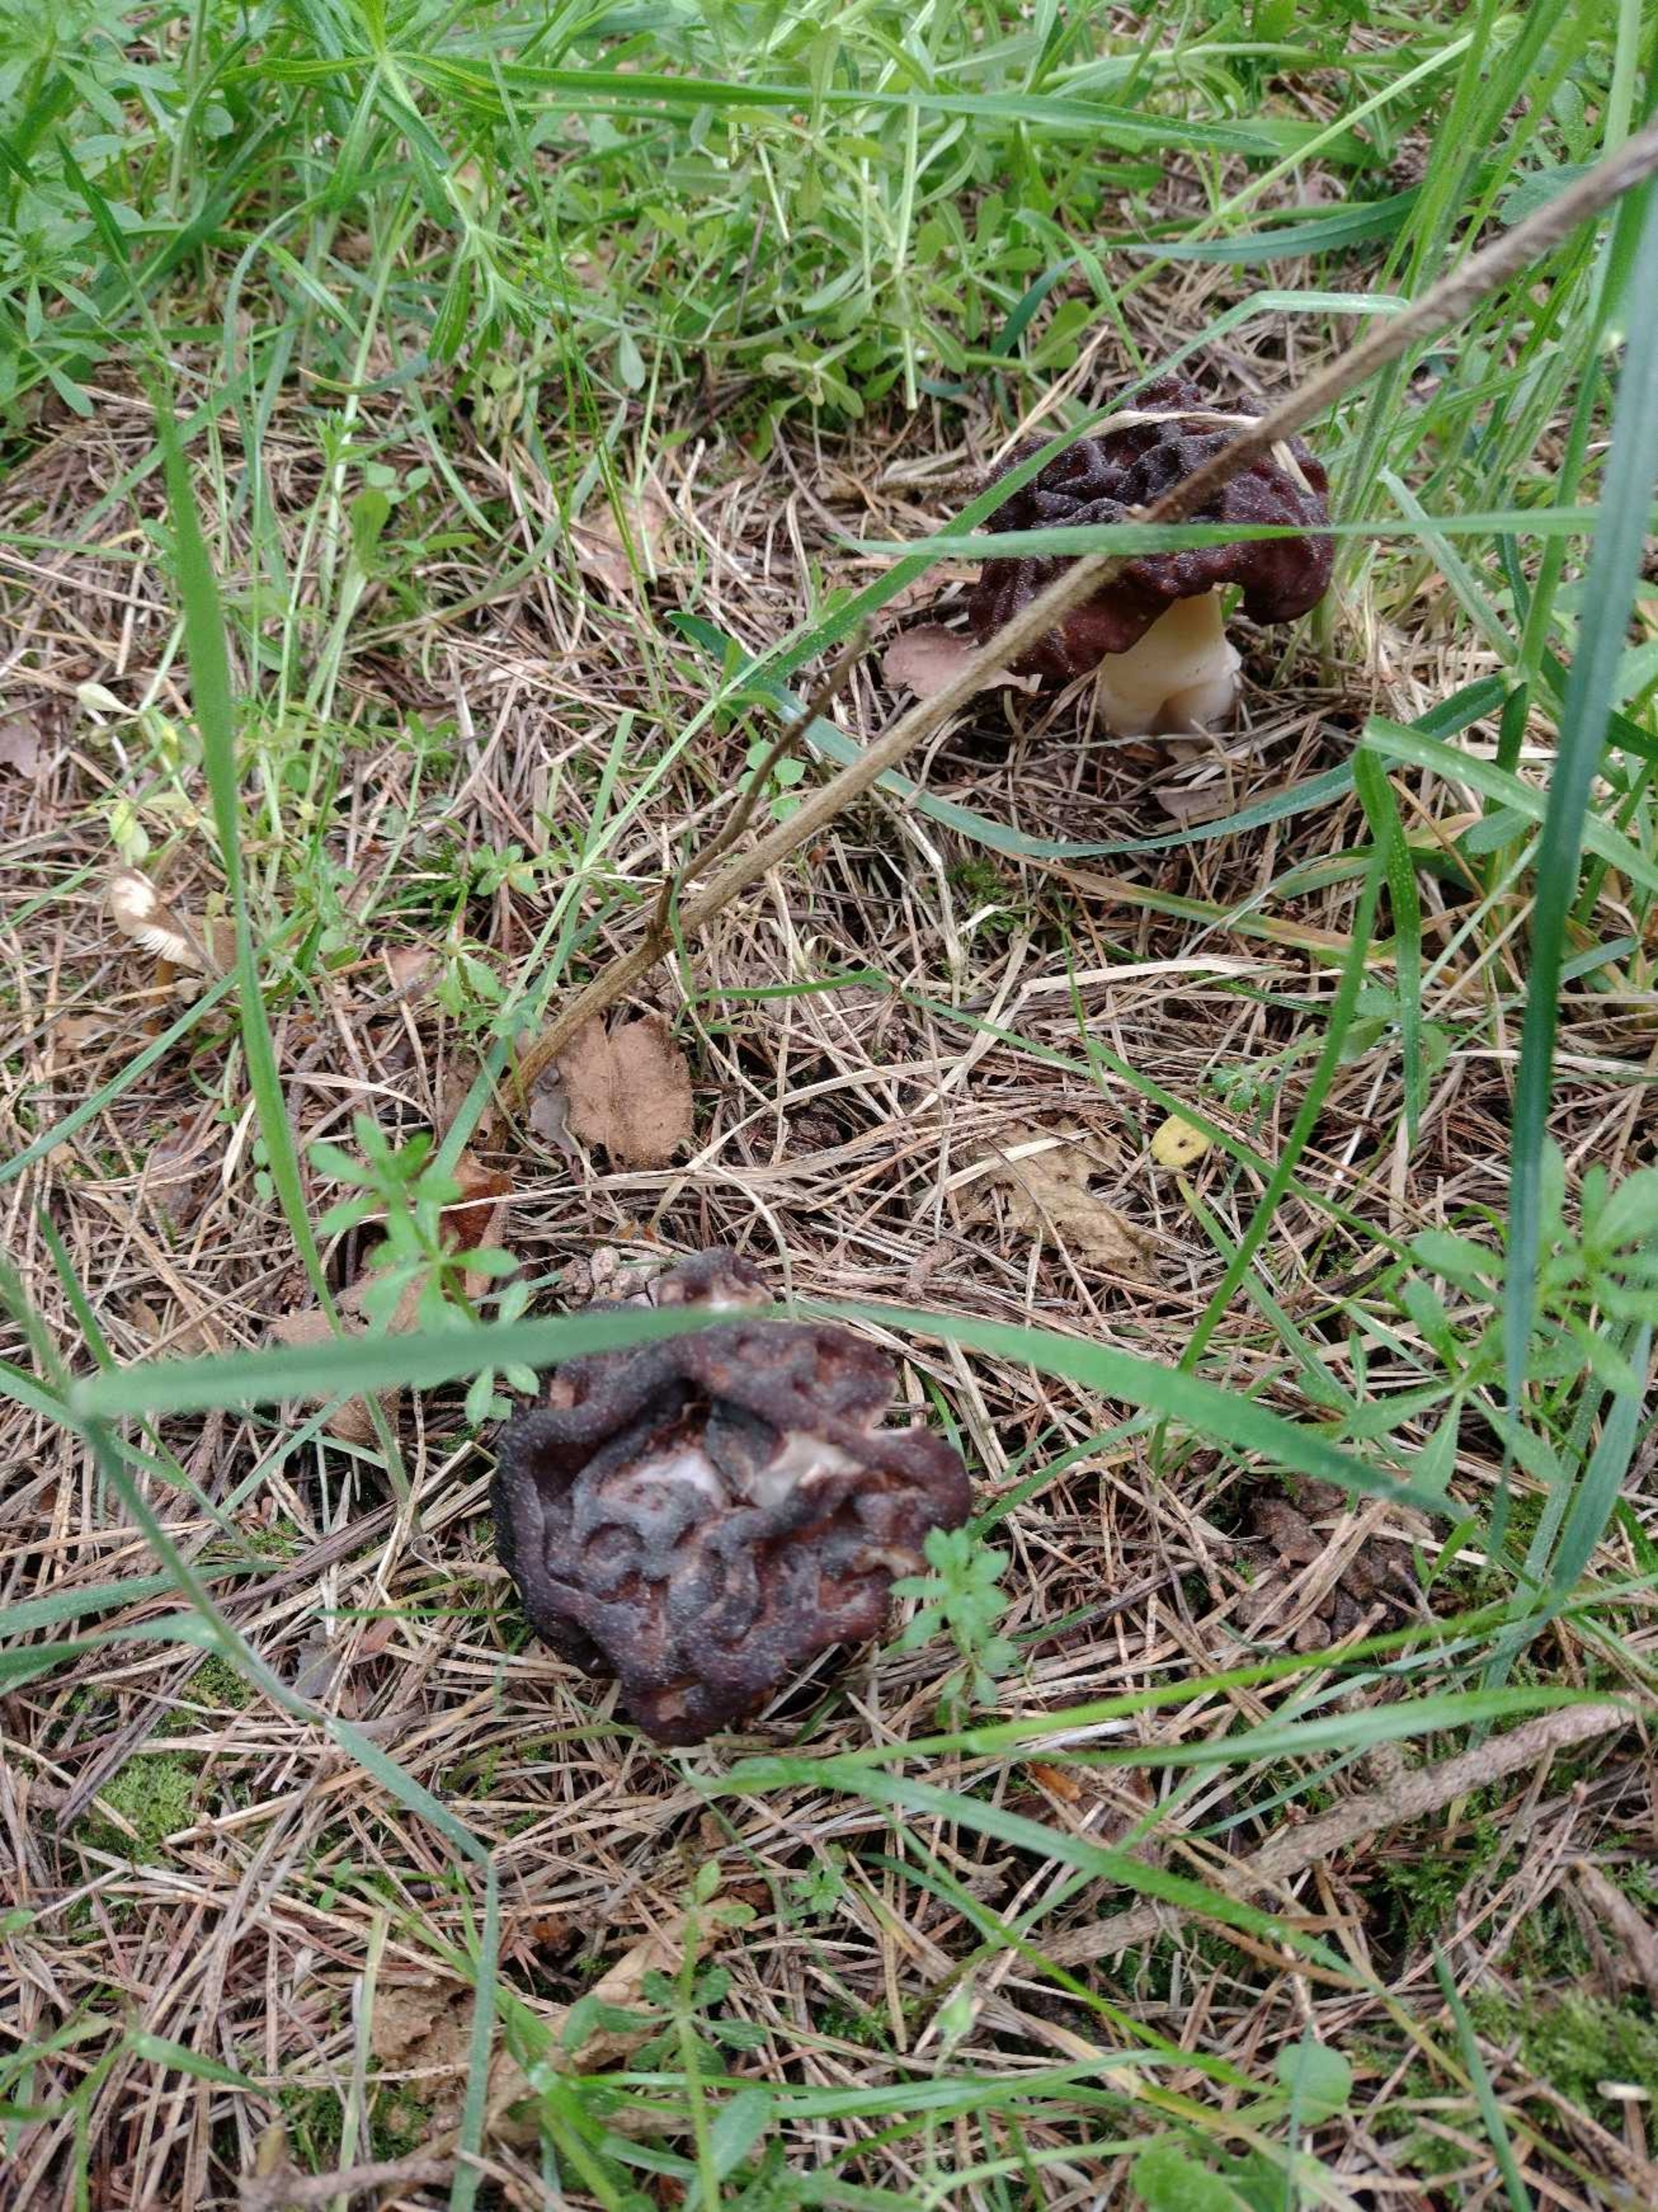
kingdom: Fungi
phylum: Ascomycota
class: Pezizomycetes
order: Pezizales
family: Discinaceae
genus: Gyromitra
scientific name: Gyromitra esculenta
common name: Ægte stenmorkel
